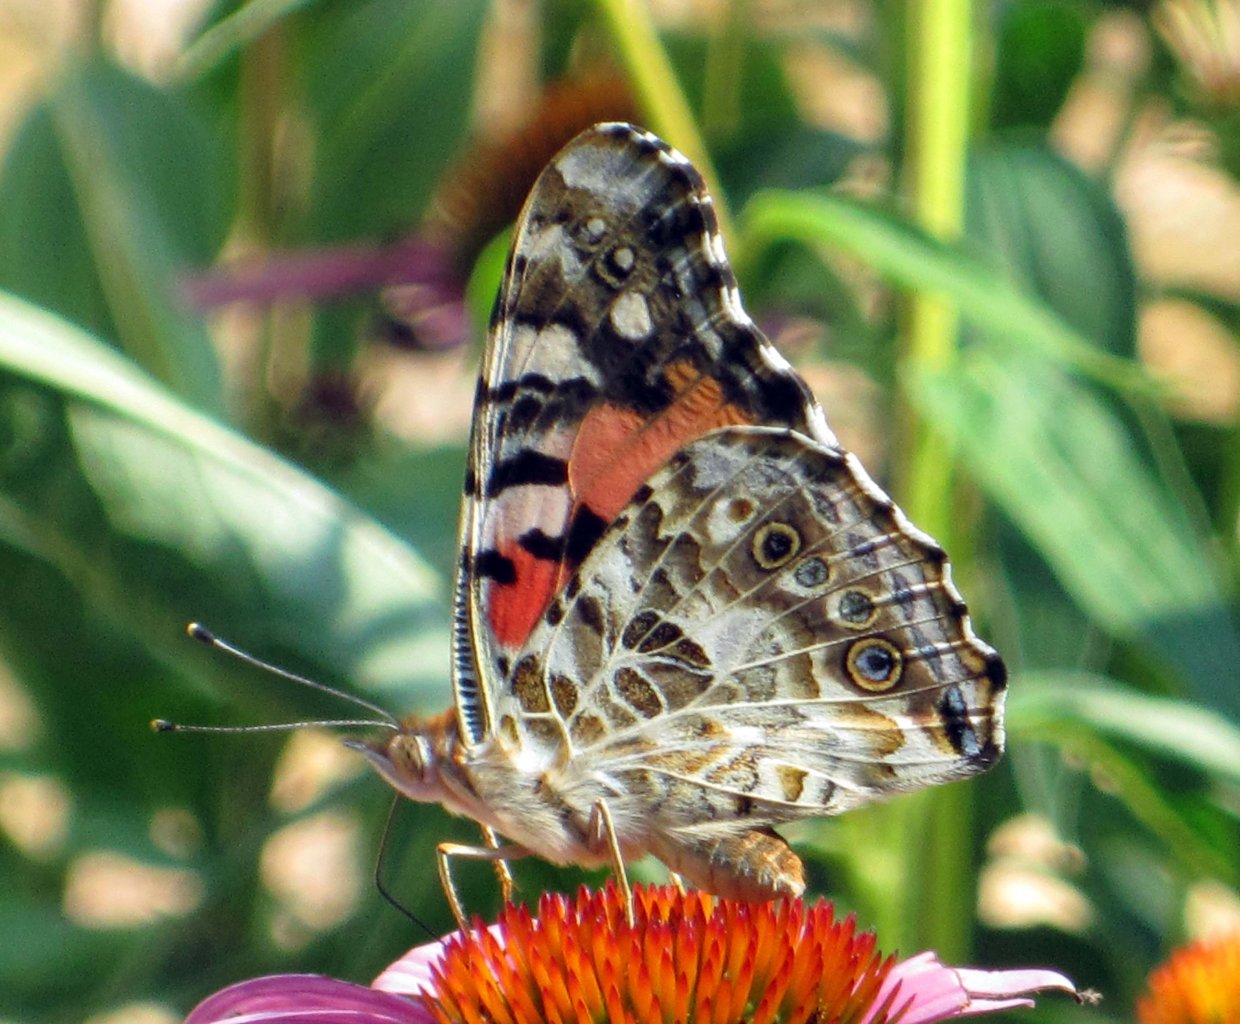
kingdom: Animalia
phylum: Arthropoda
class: Insecta
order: Lepidoptera
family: Nymphalidae
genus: Vanessa
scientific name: Vanessa cardui
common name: Painted Lady
